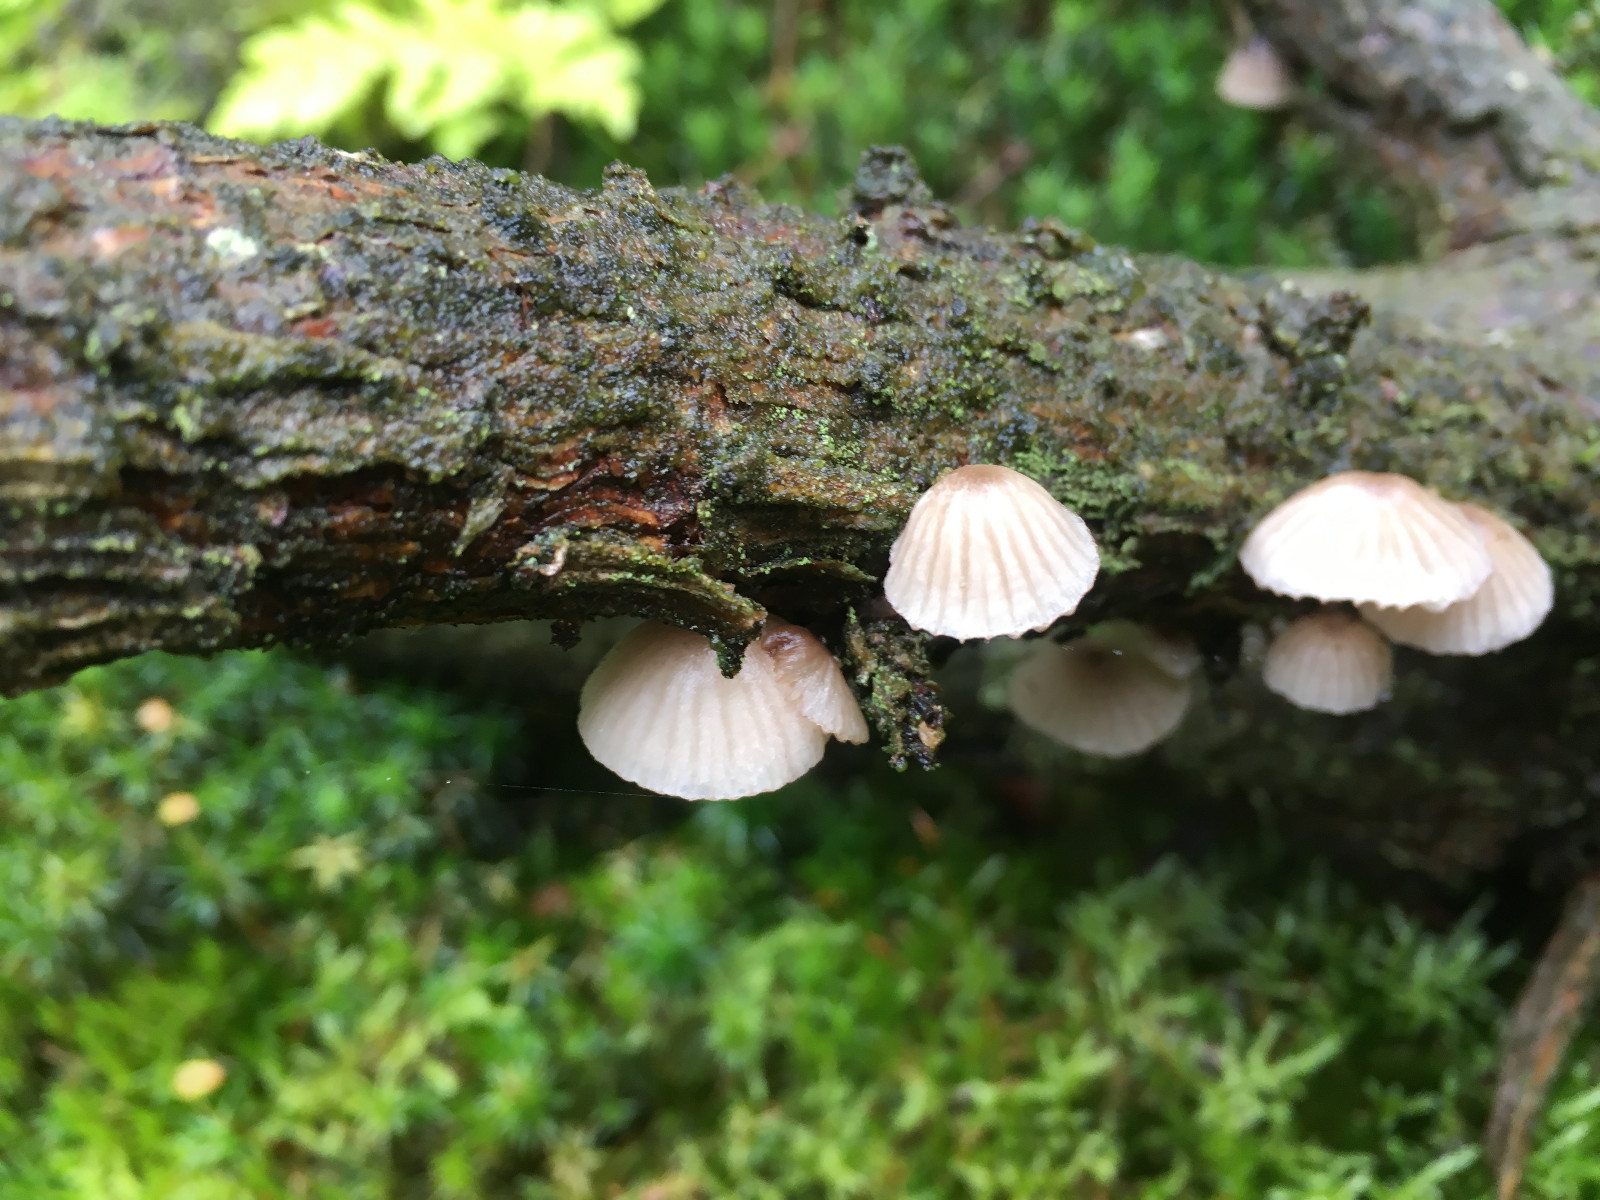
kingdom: Fungi
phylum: Basidiomycota
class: Agaricomycetes
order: Agaricales
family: Mycenaceae
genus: Mycena
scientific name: Mycena rubromarginata
